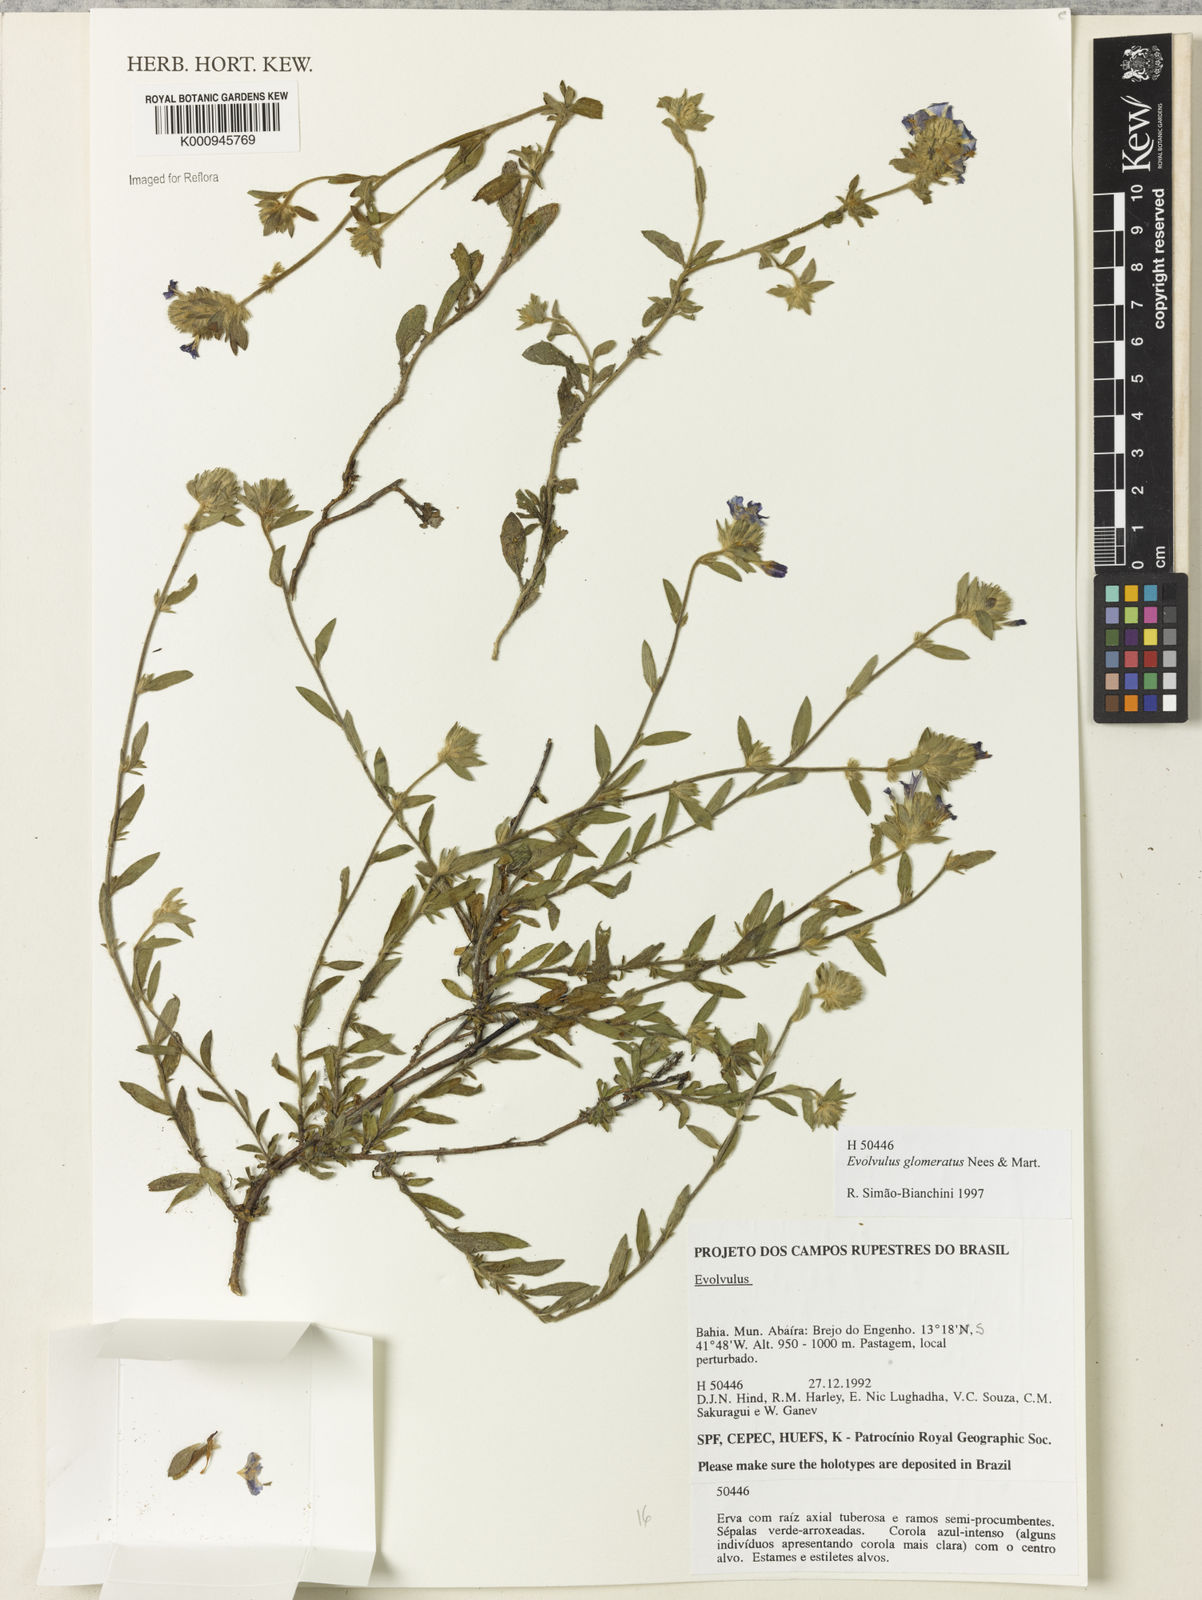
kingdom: Plantae
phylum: Tracheophyta
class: Magnoliopsida
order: Solanales
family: Convolvulaceae
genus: Evolvulus
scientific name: Evolvulus glomeratus
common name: Brazilian dwarf morning-glory
